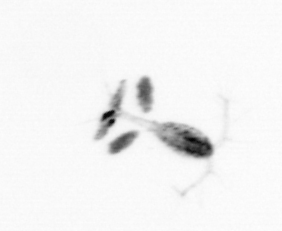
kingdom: Animalia
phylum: Arthropoda
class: Copepoda
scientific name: Copepoda
